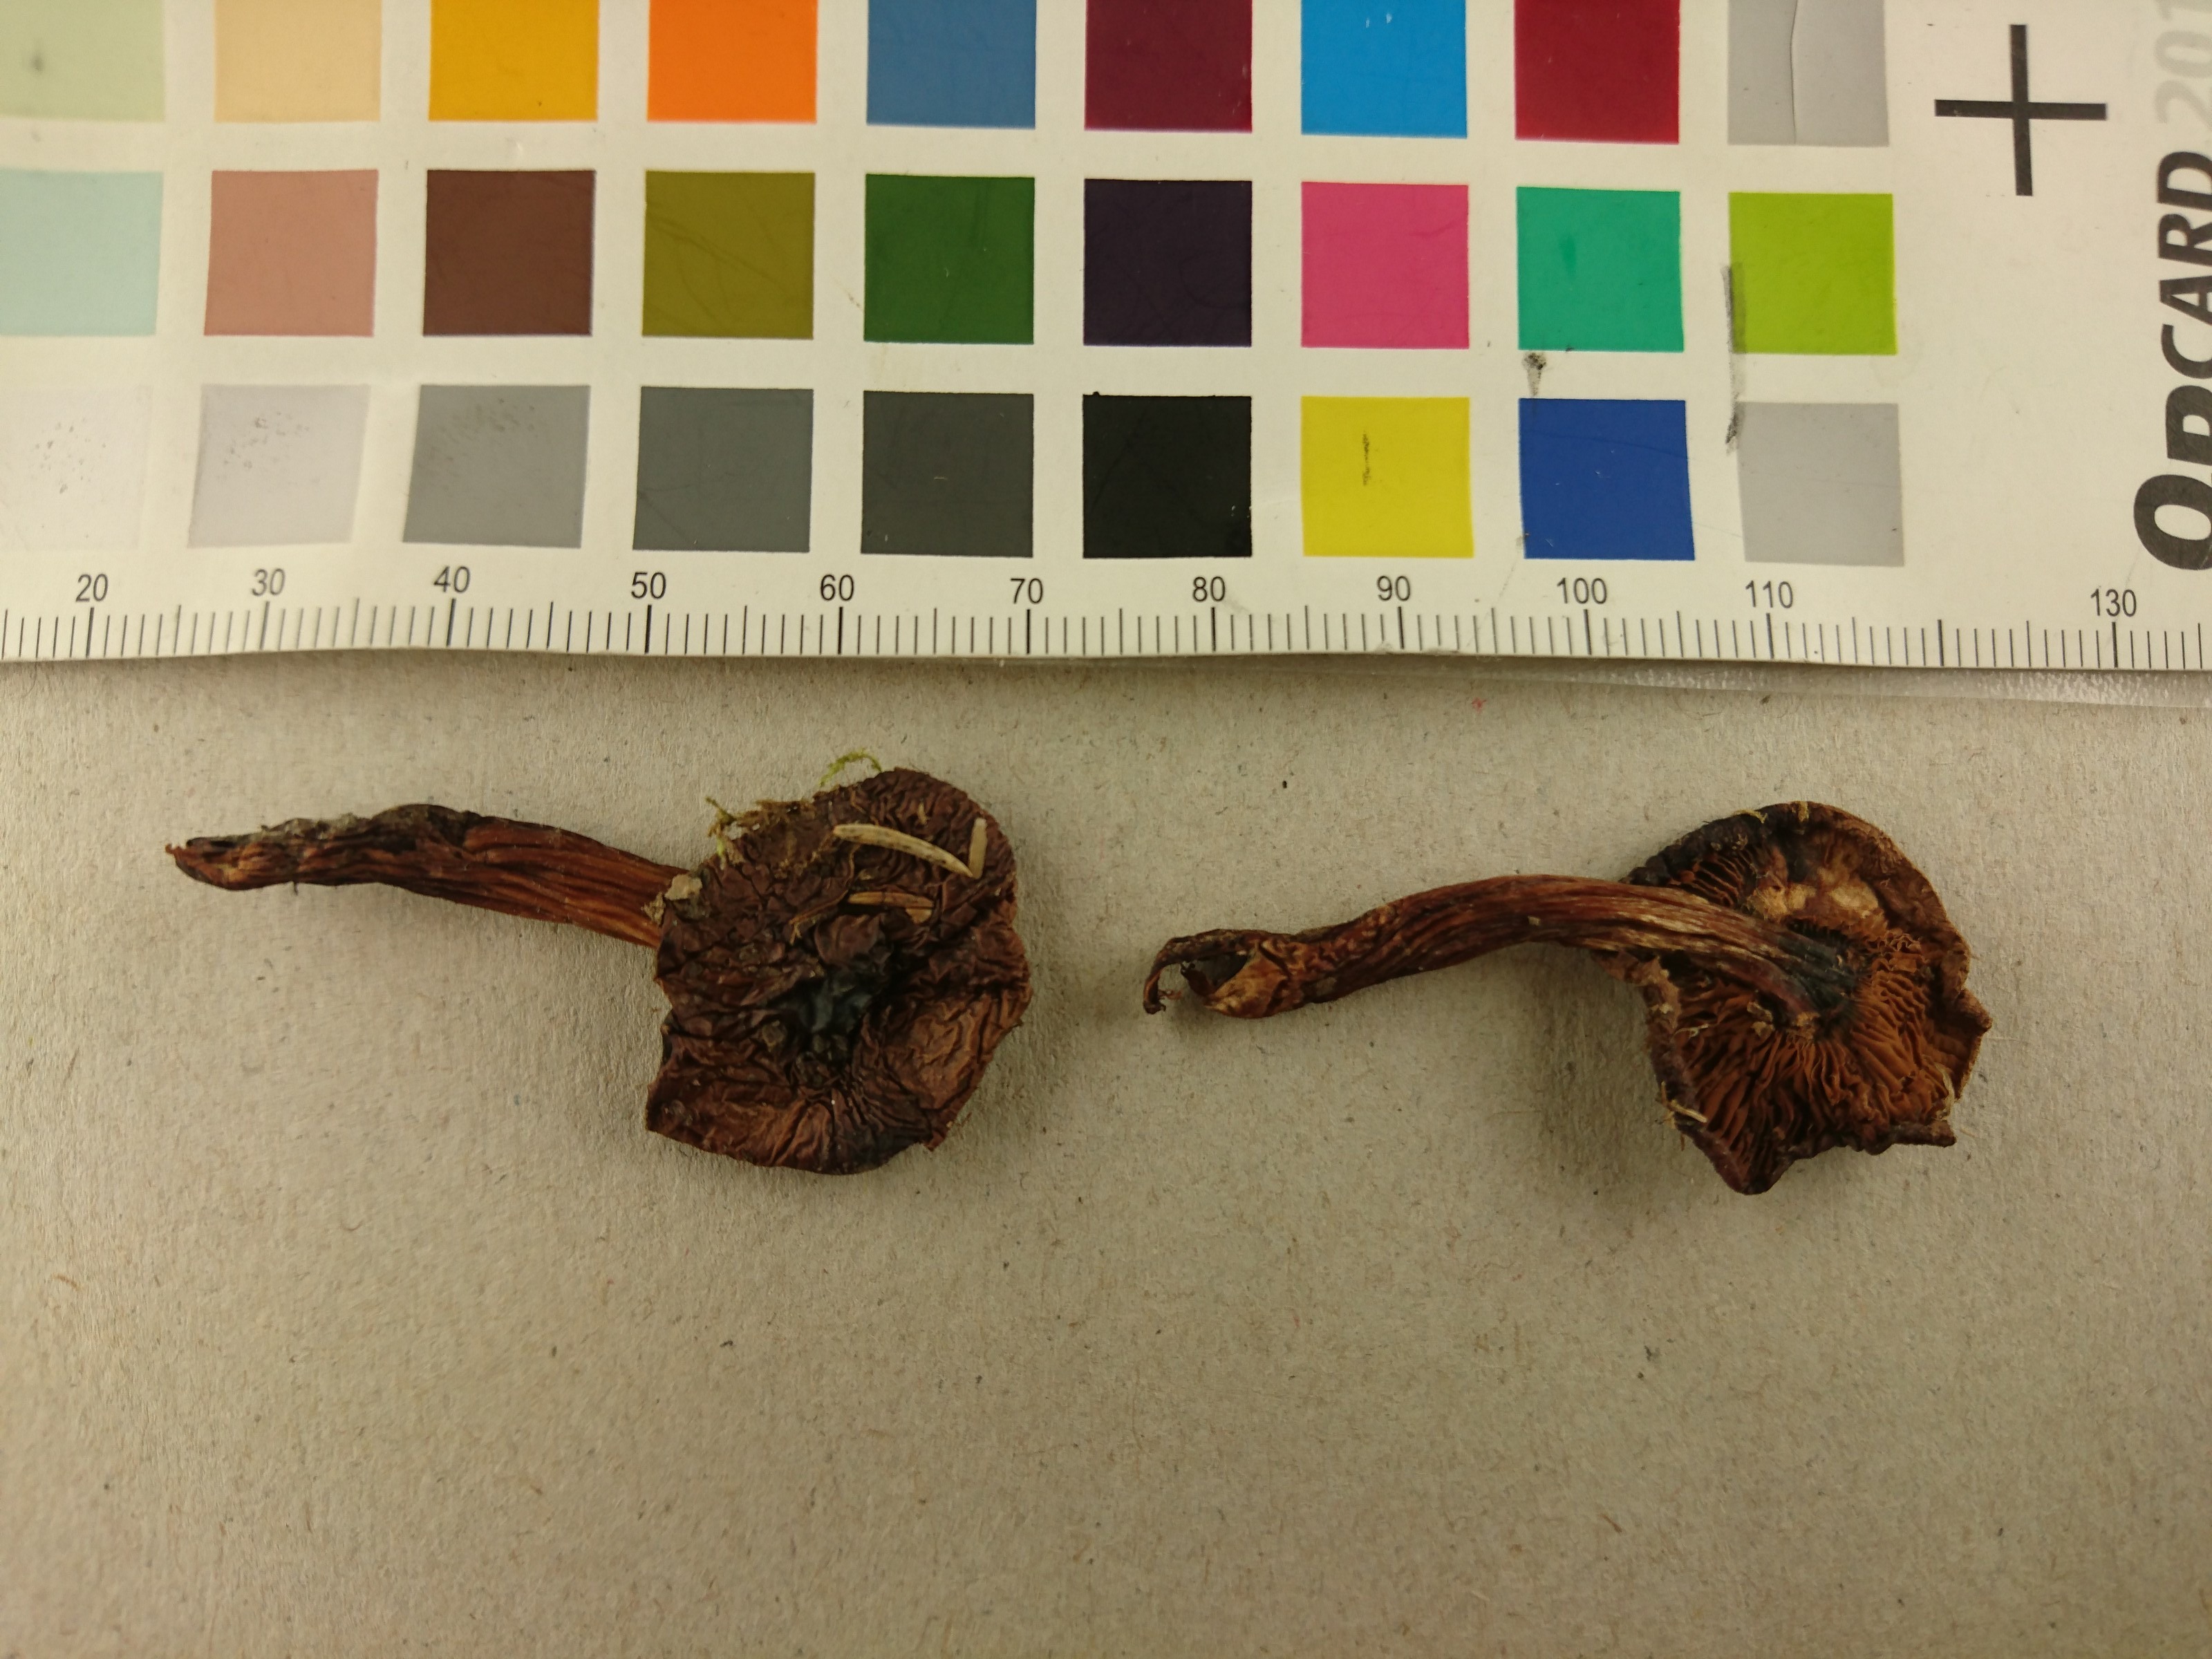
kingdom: Fungi
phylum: Basidiomycota
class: Agaricomycetes
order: Agaricales
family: Hymenogastraceae
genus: Phaeocollybia
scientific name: Phaeocollybia cidaris
